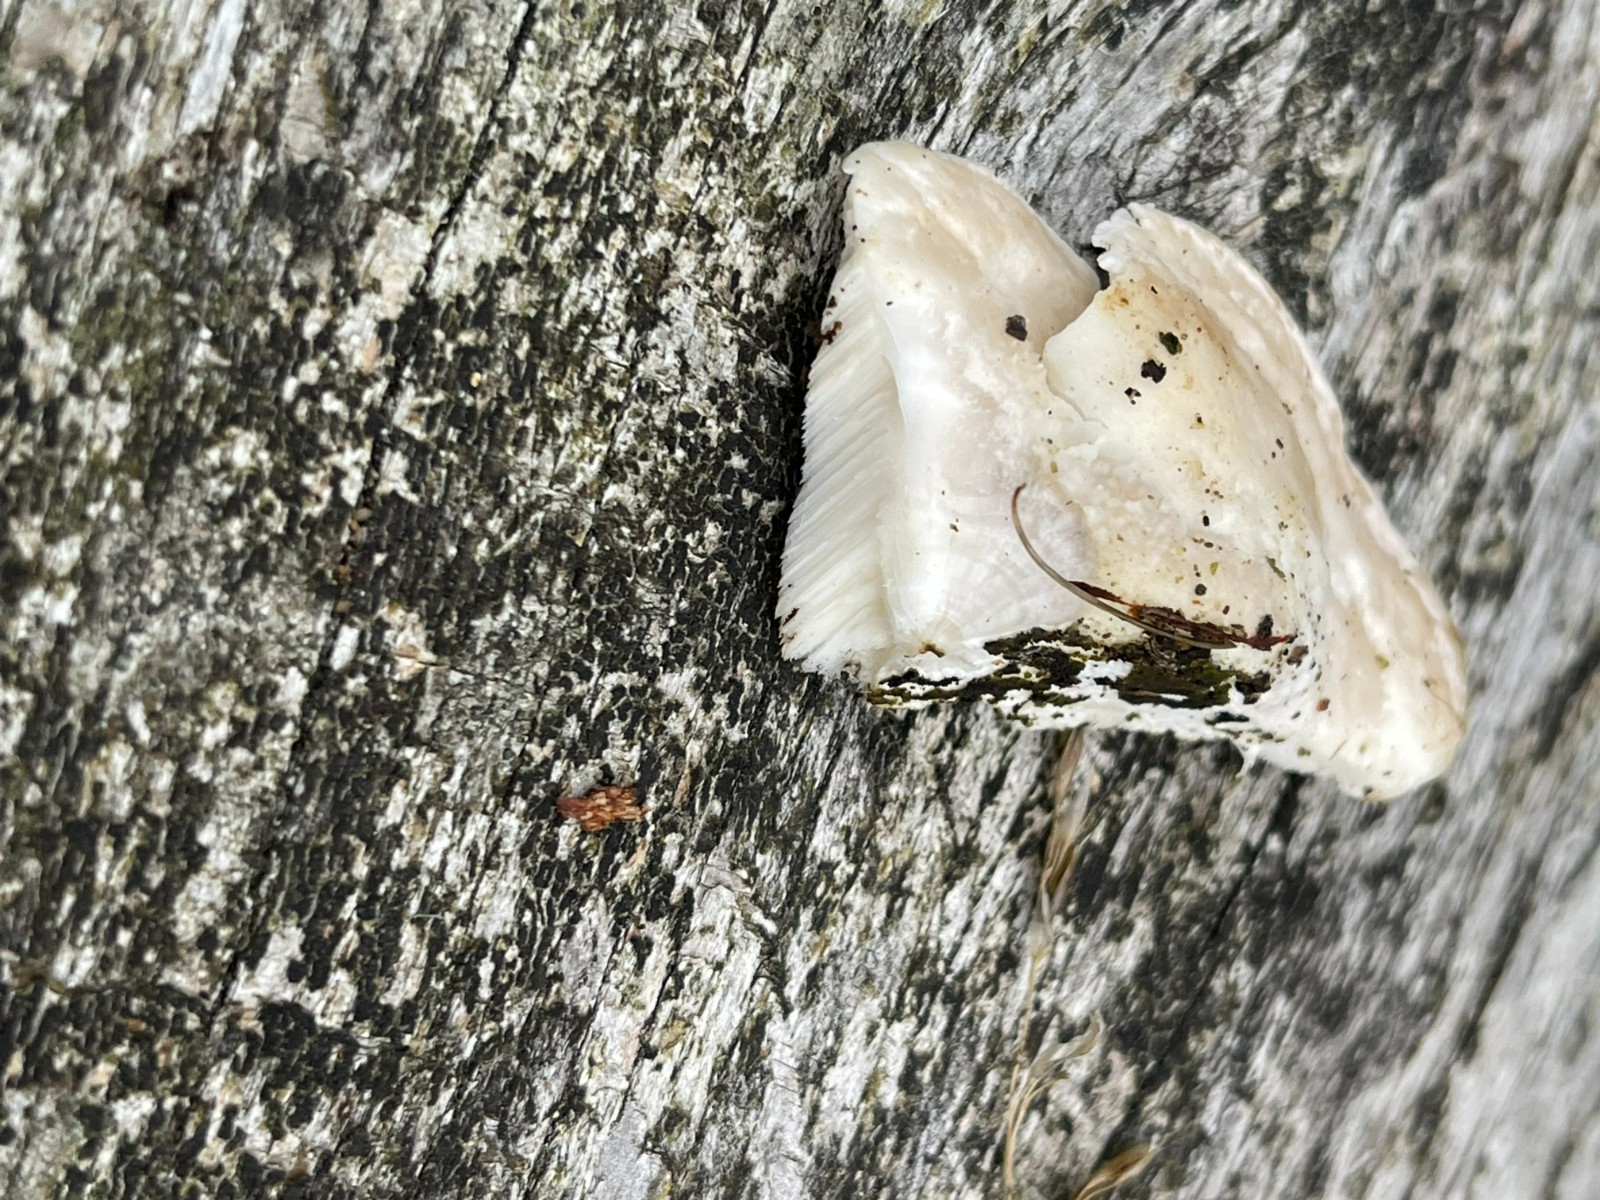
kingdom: Fungi
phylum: Basidiomycota
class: Agaricomycetes
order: Polyporales
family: Incrustoporiaceae
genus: Tyromyces
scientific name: Tyromyces lacteus
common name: mælkehvid kødporesvamp
